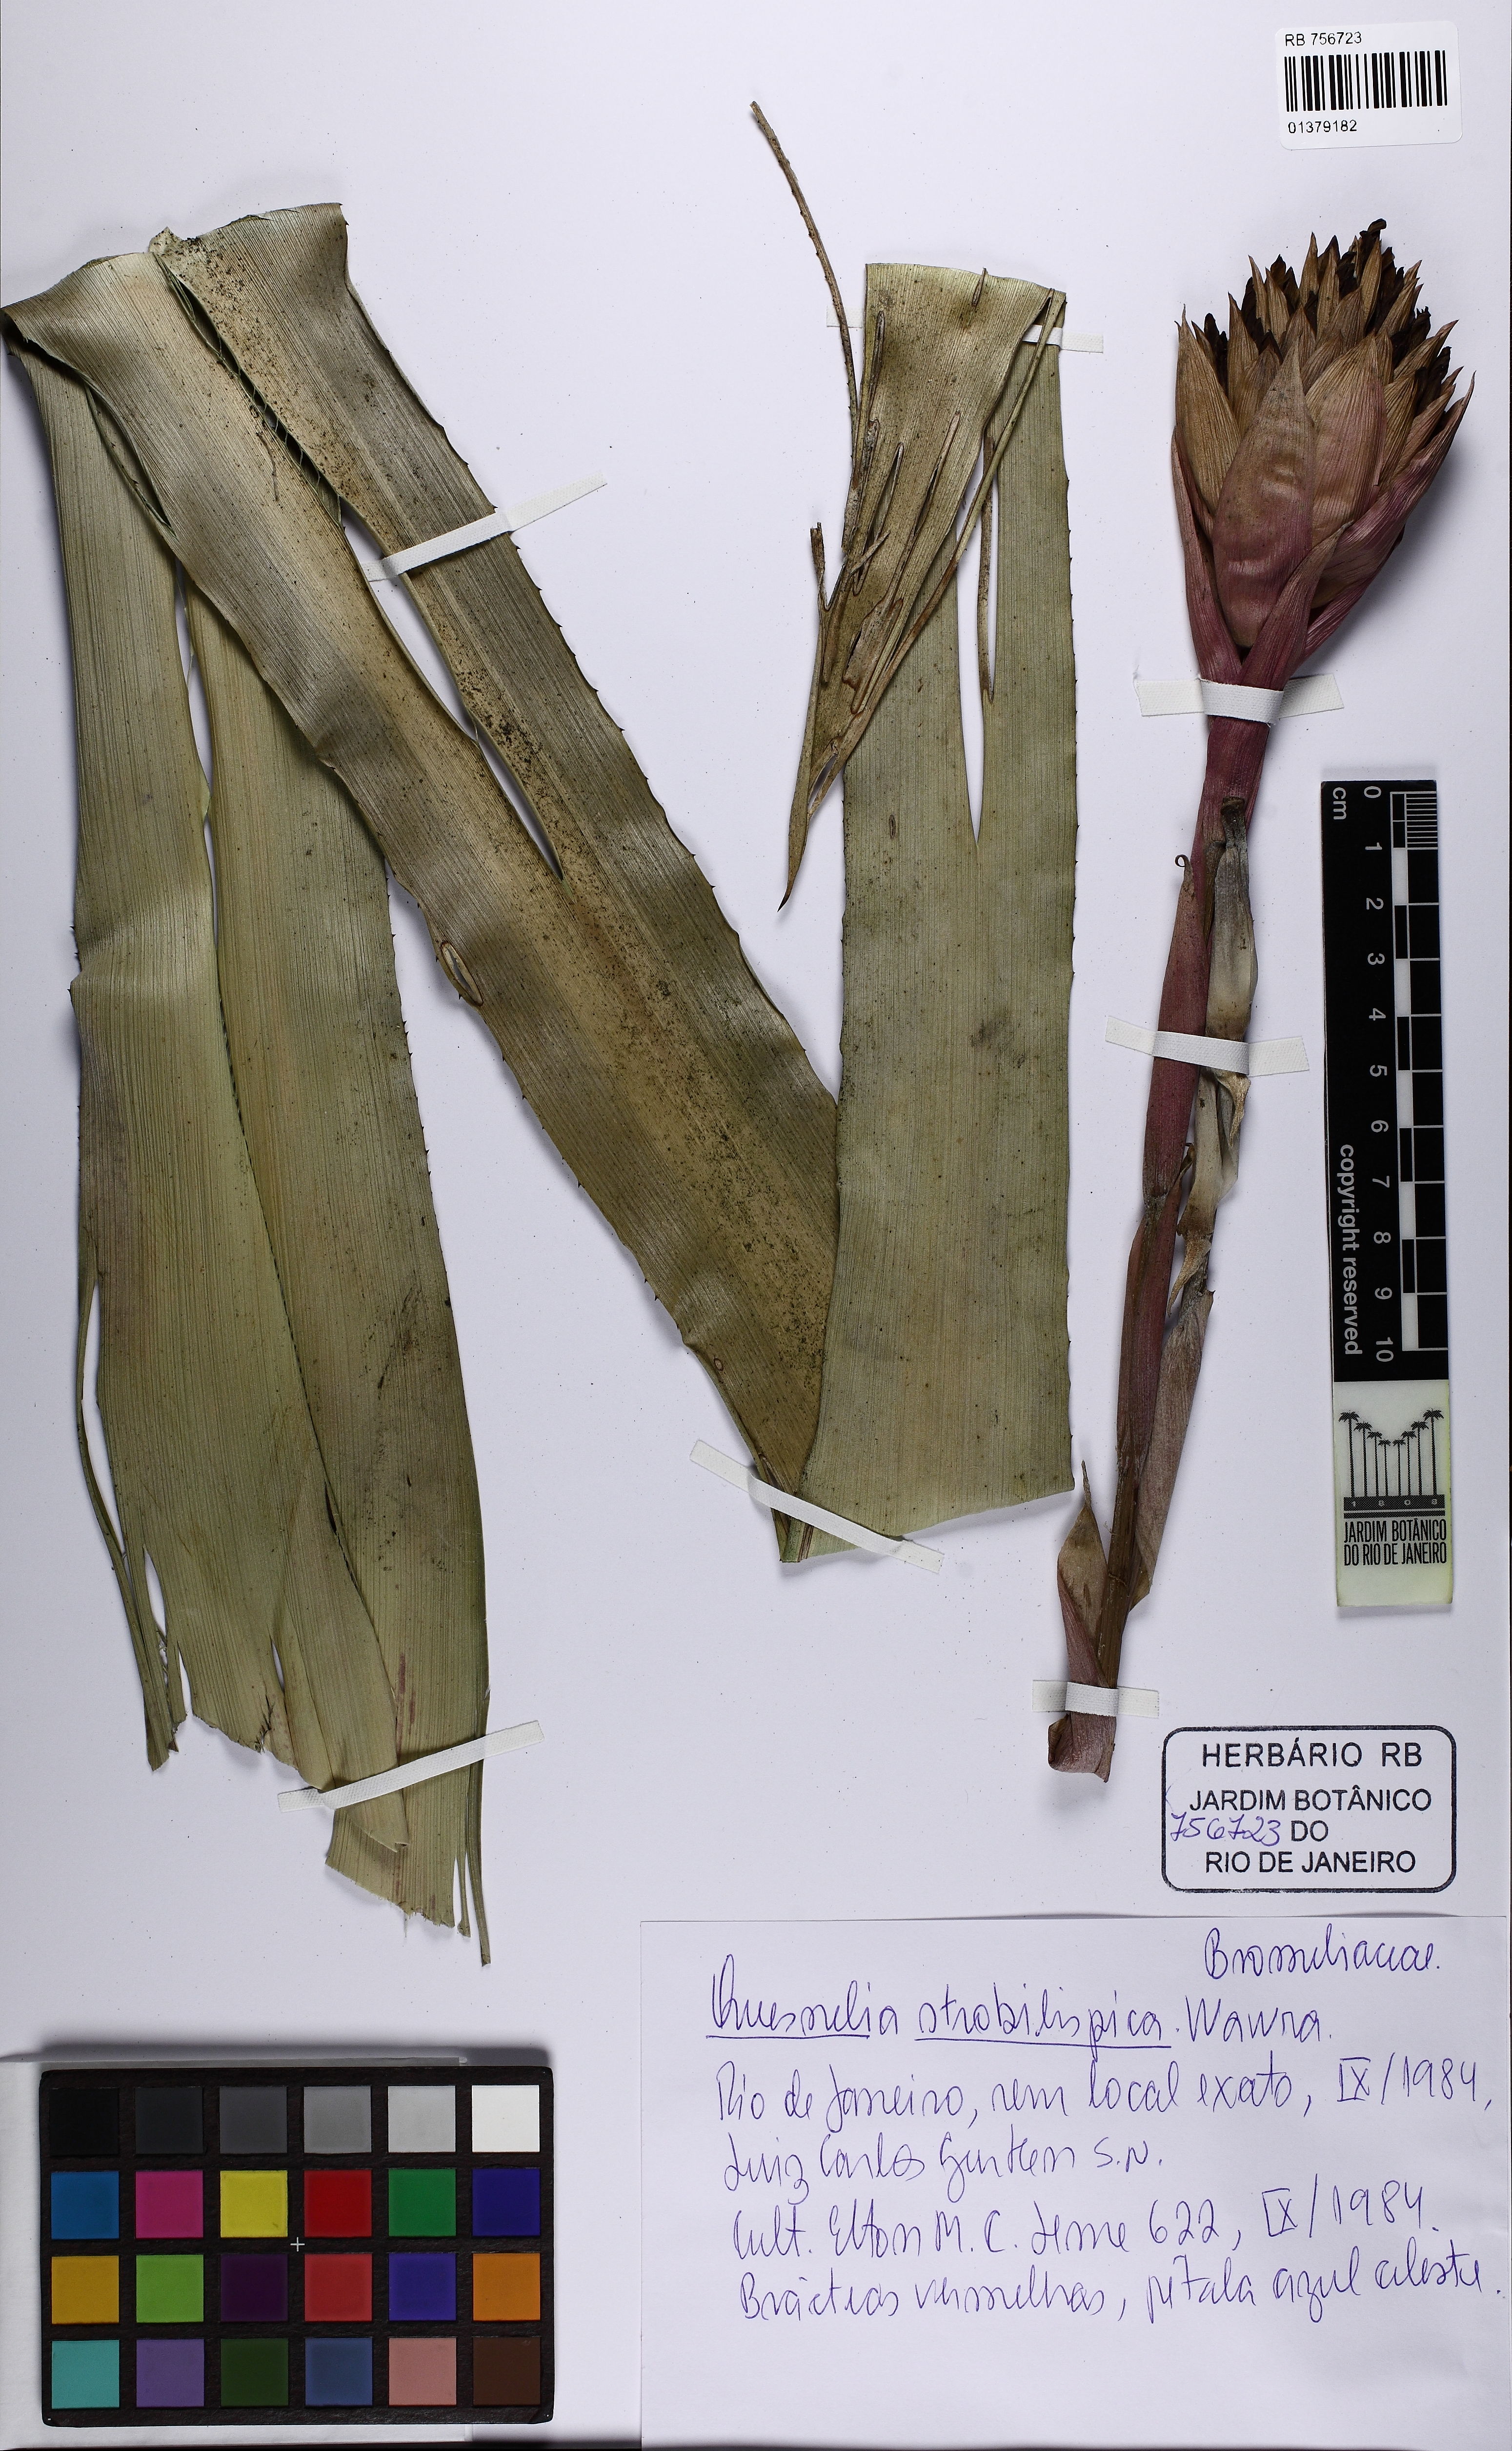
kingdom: Plantae
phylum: Tracheophyta
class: Liliopsida
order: Poales
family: Bromeliaceae
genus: Quesnelia
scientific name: Quesnelia strobilispica
